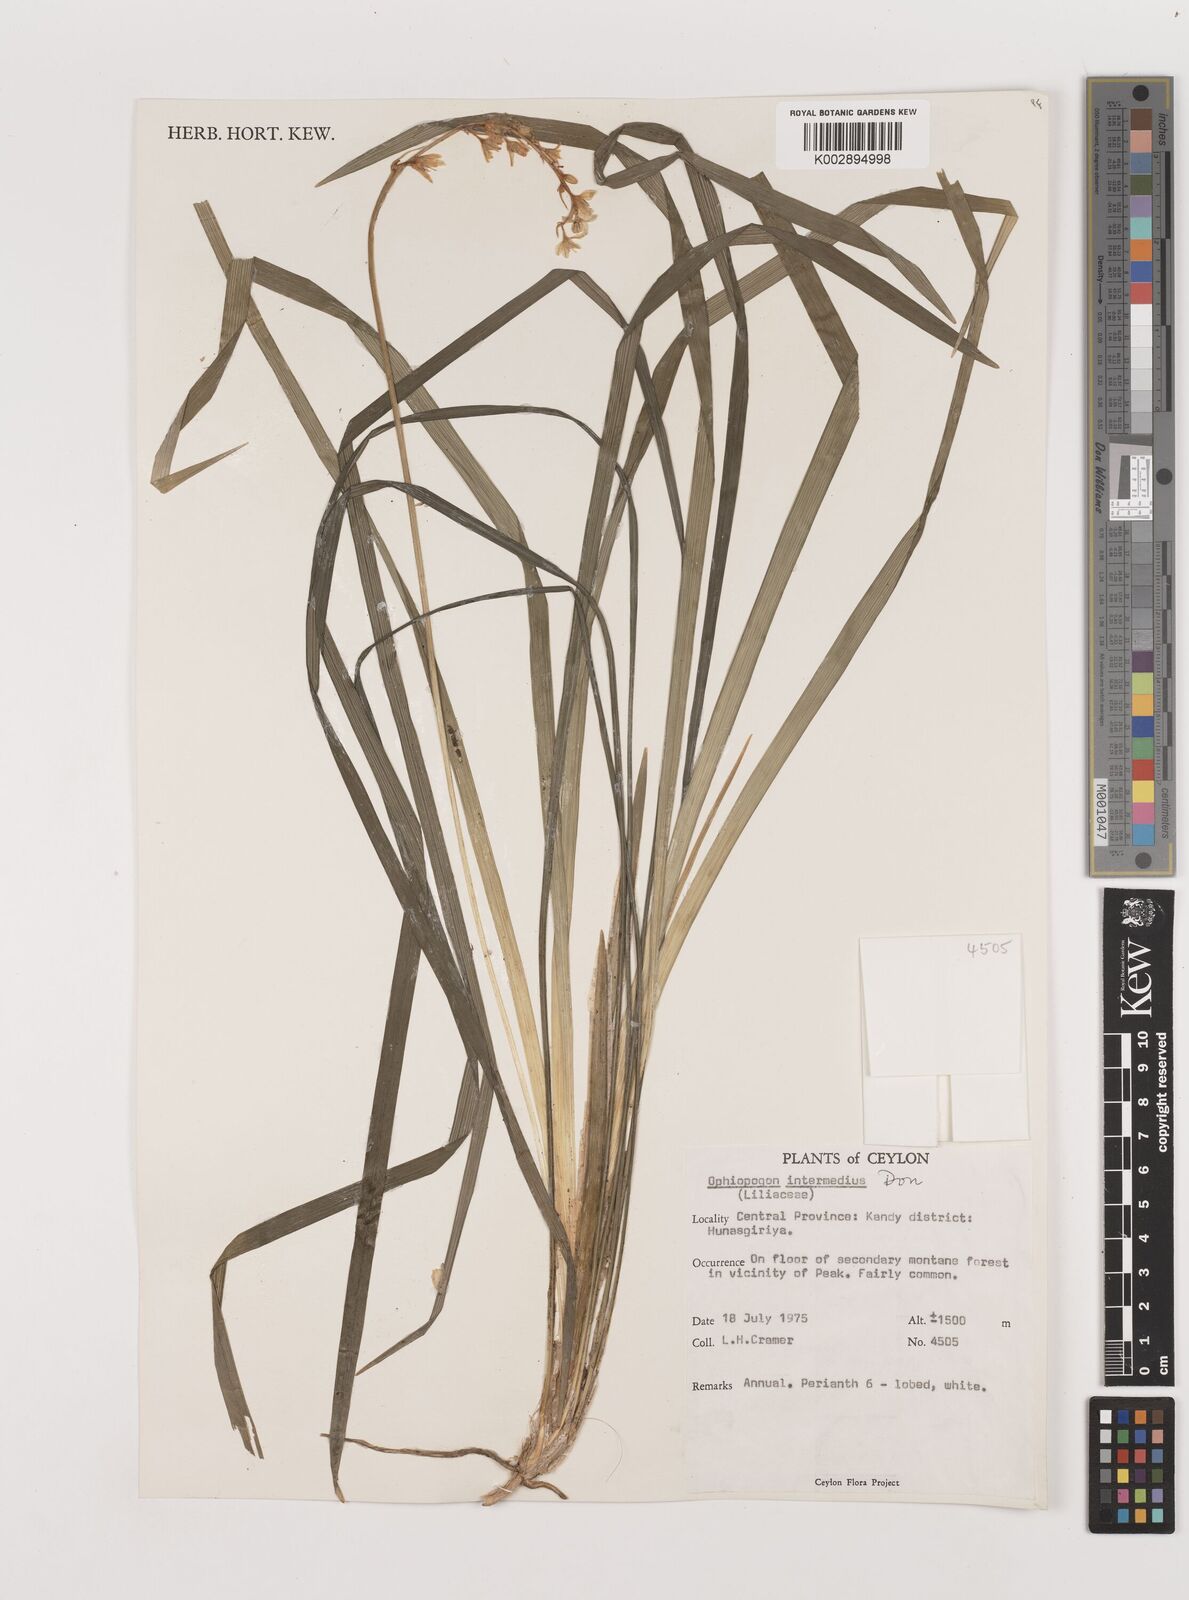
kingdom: Plantae
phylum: Tracheophyta
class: Liliopsida
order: Asparagales
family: Asparagaceae
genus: Ophiopogon
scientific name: Ophiopogon intermedius
